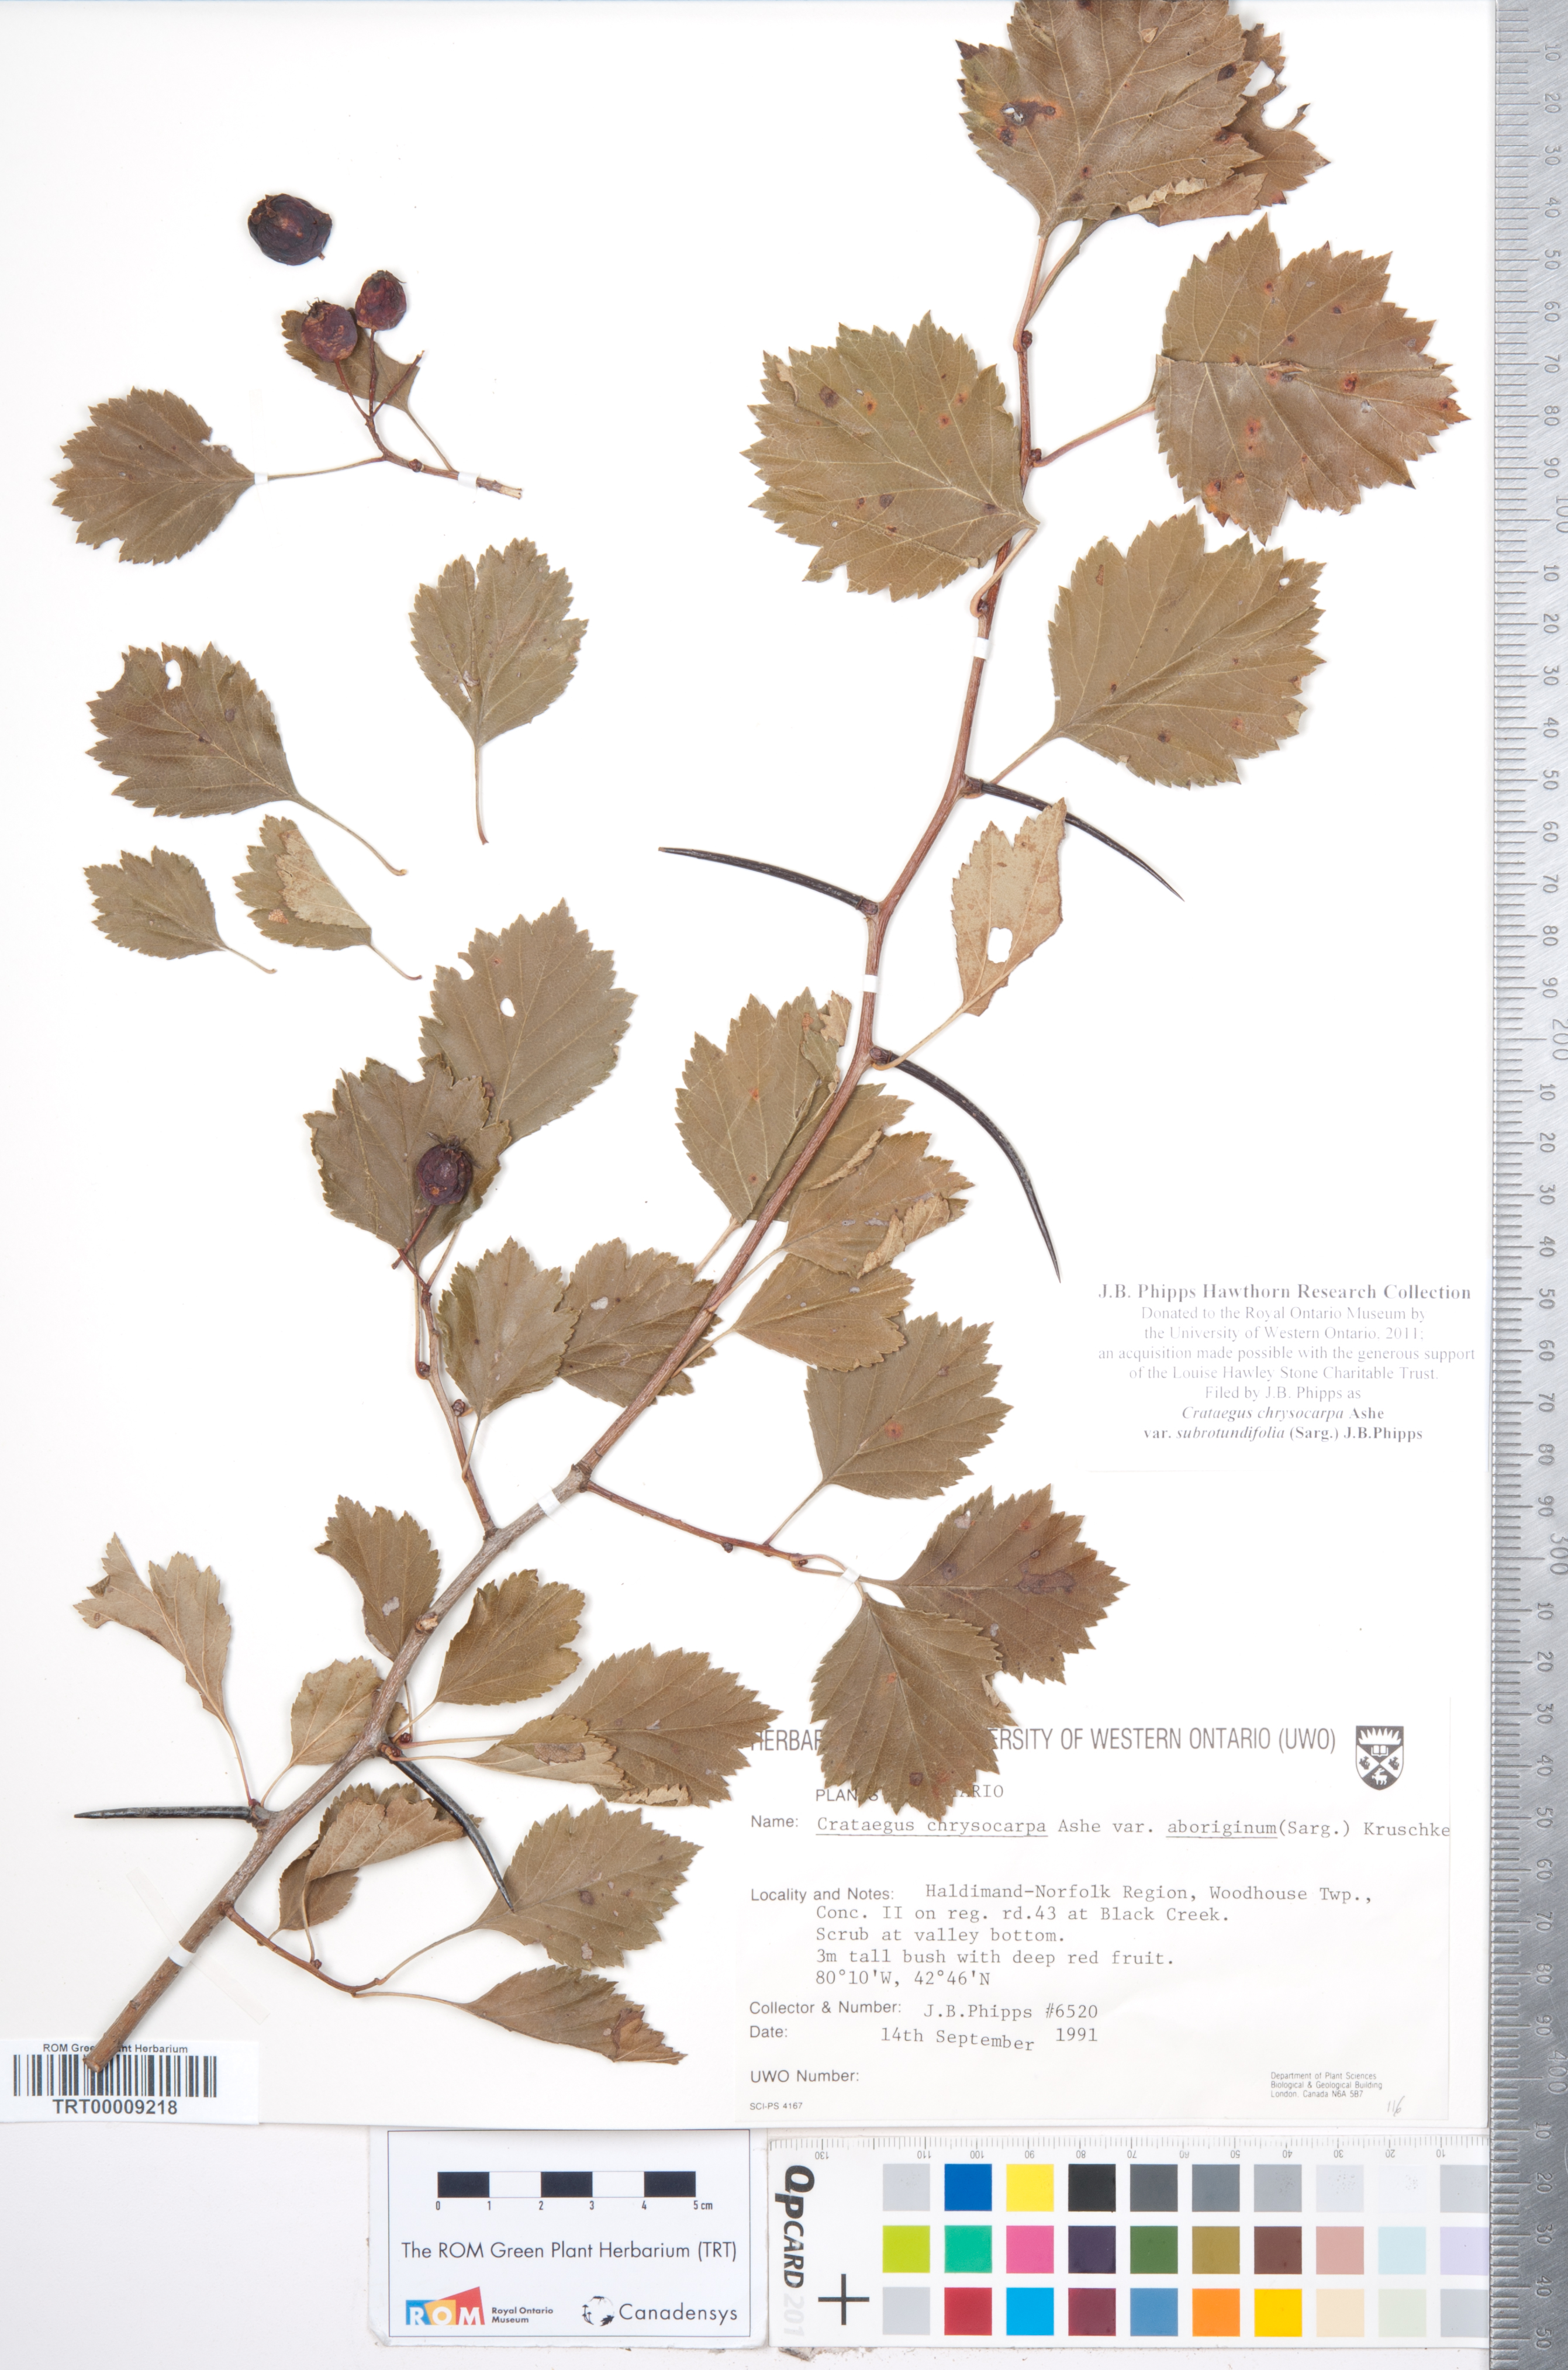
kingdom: Plantae
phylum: Tracheophyta
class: Magnoliopsida
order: Rosales
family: Rosaceae
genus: Crataegus
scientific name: Crataegus chrysocarpa
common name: Fire-berry hawthorn
